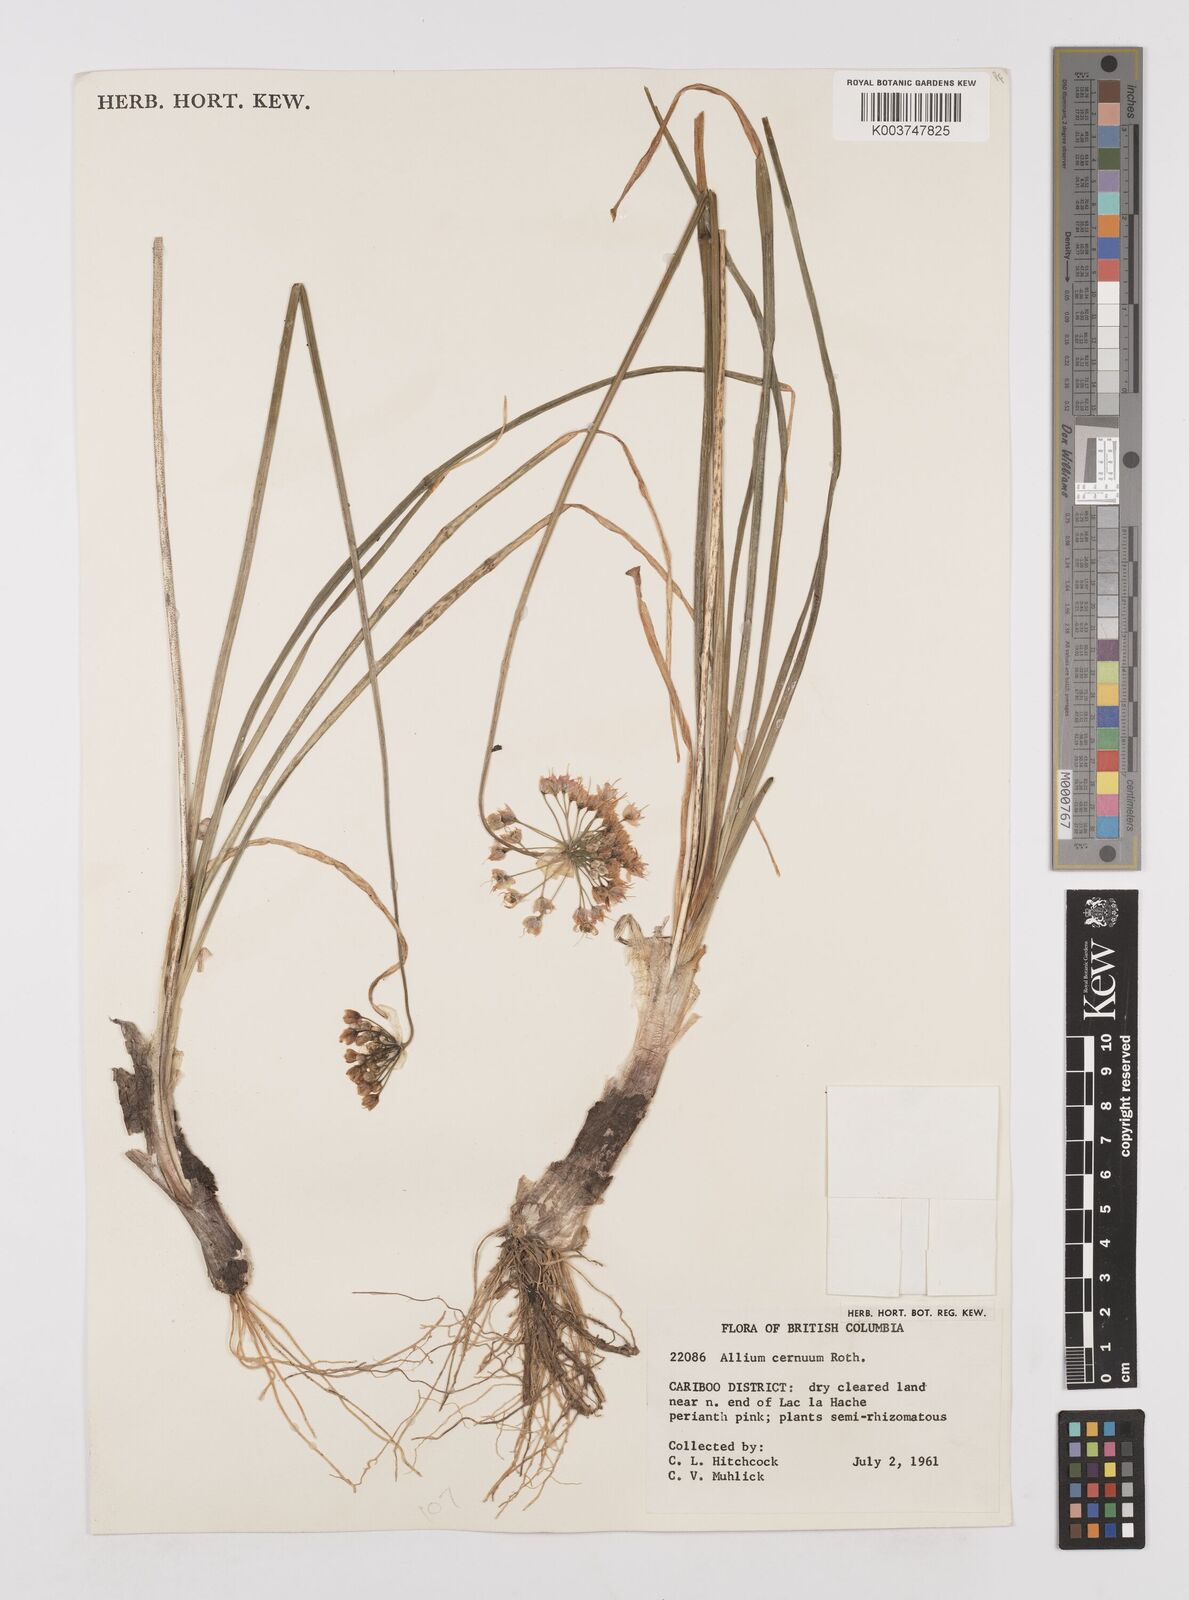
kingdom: Plantae
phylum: Tracheophyta
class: Liliopsida
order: Asparagales
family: Amaryllidaceae
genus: Allium
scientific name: Allium cernuum
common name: Nodding onion
